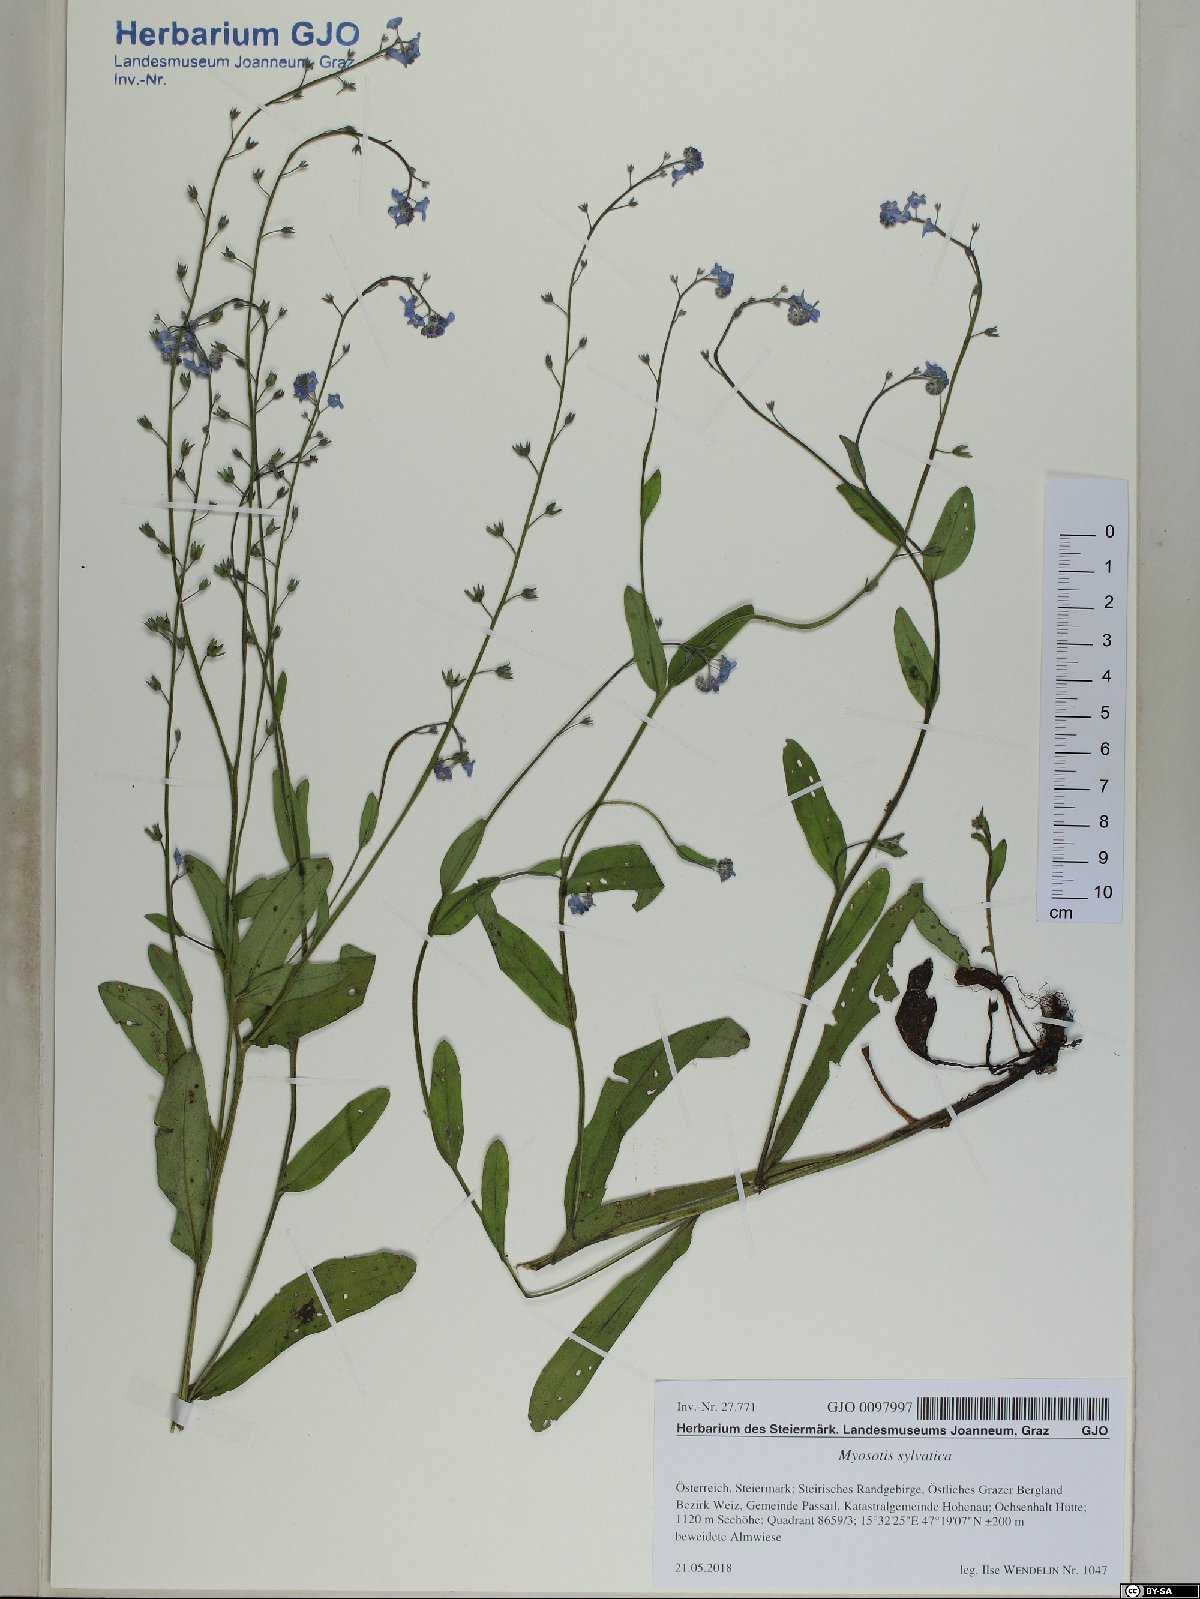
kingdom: Plantae
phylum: Tracheophyta
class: Magnoliopsida
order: Boraginales
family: Boraginaceae
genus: Myosotis
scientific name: Myosotis sylvatica
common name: Wood forget-me-not
